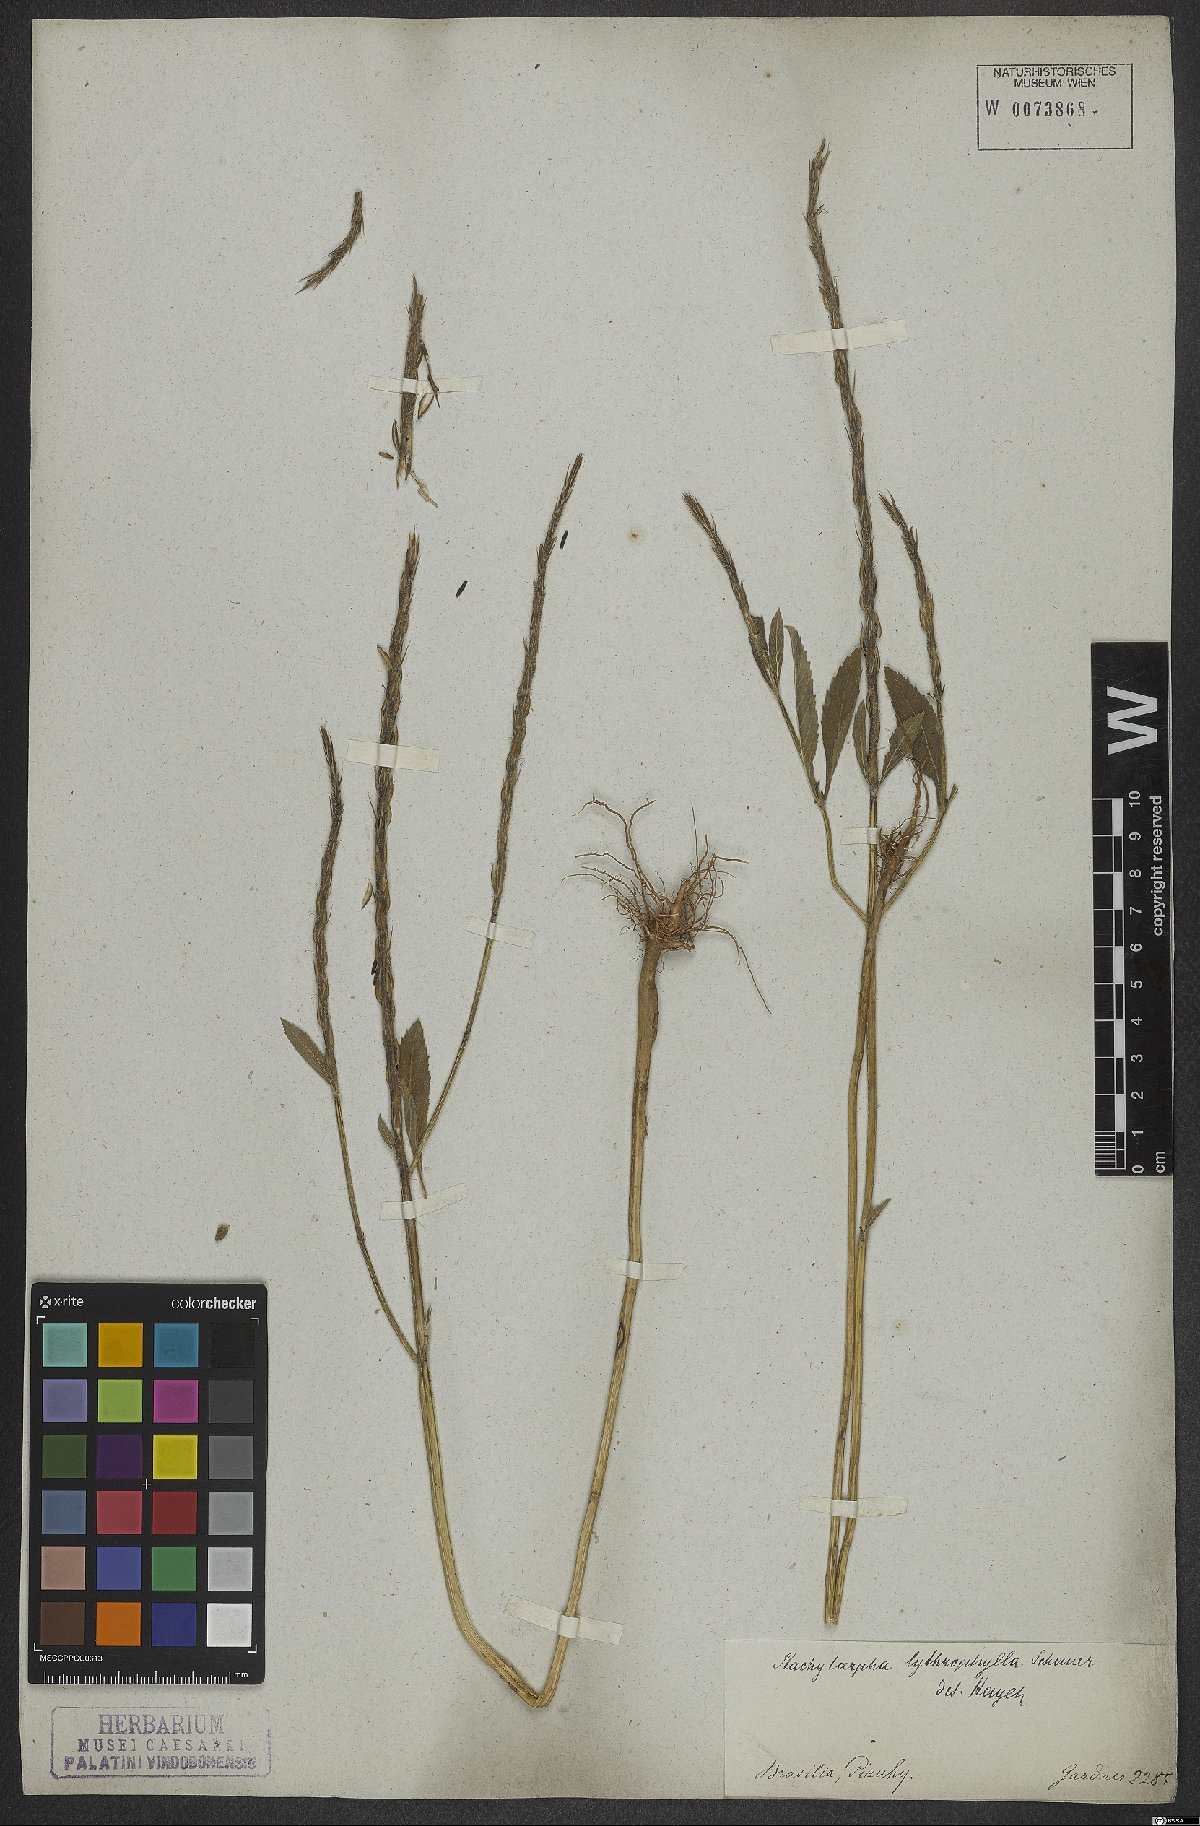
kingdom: Plantae
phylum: Tracheophyta
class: Magnoliopsida
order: Lamiales
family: Verbenaceae
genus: Stachytarpheta
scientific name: Stachytarpheta lythrophylla
